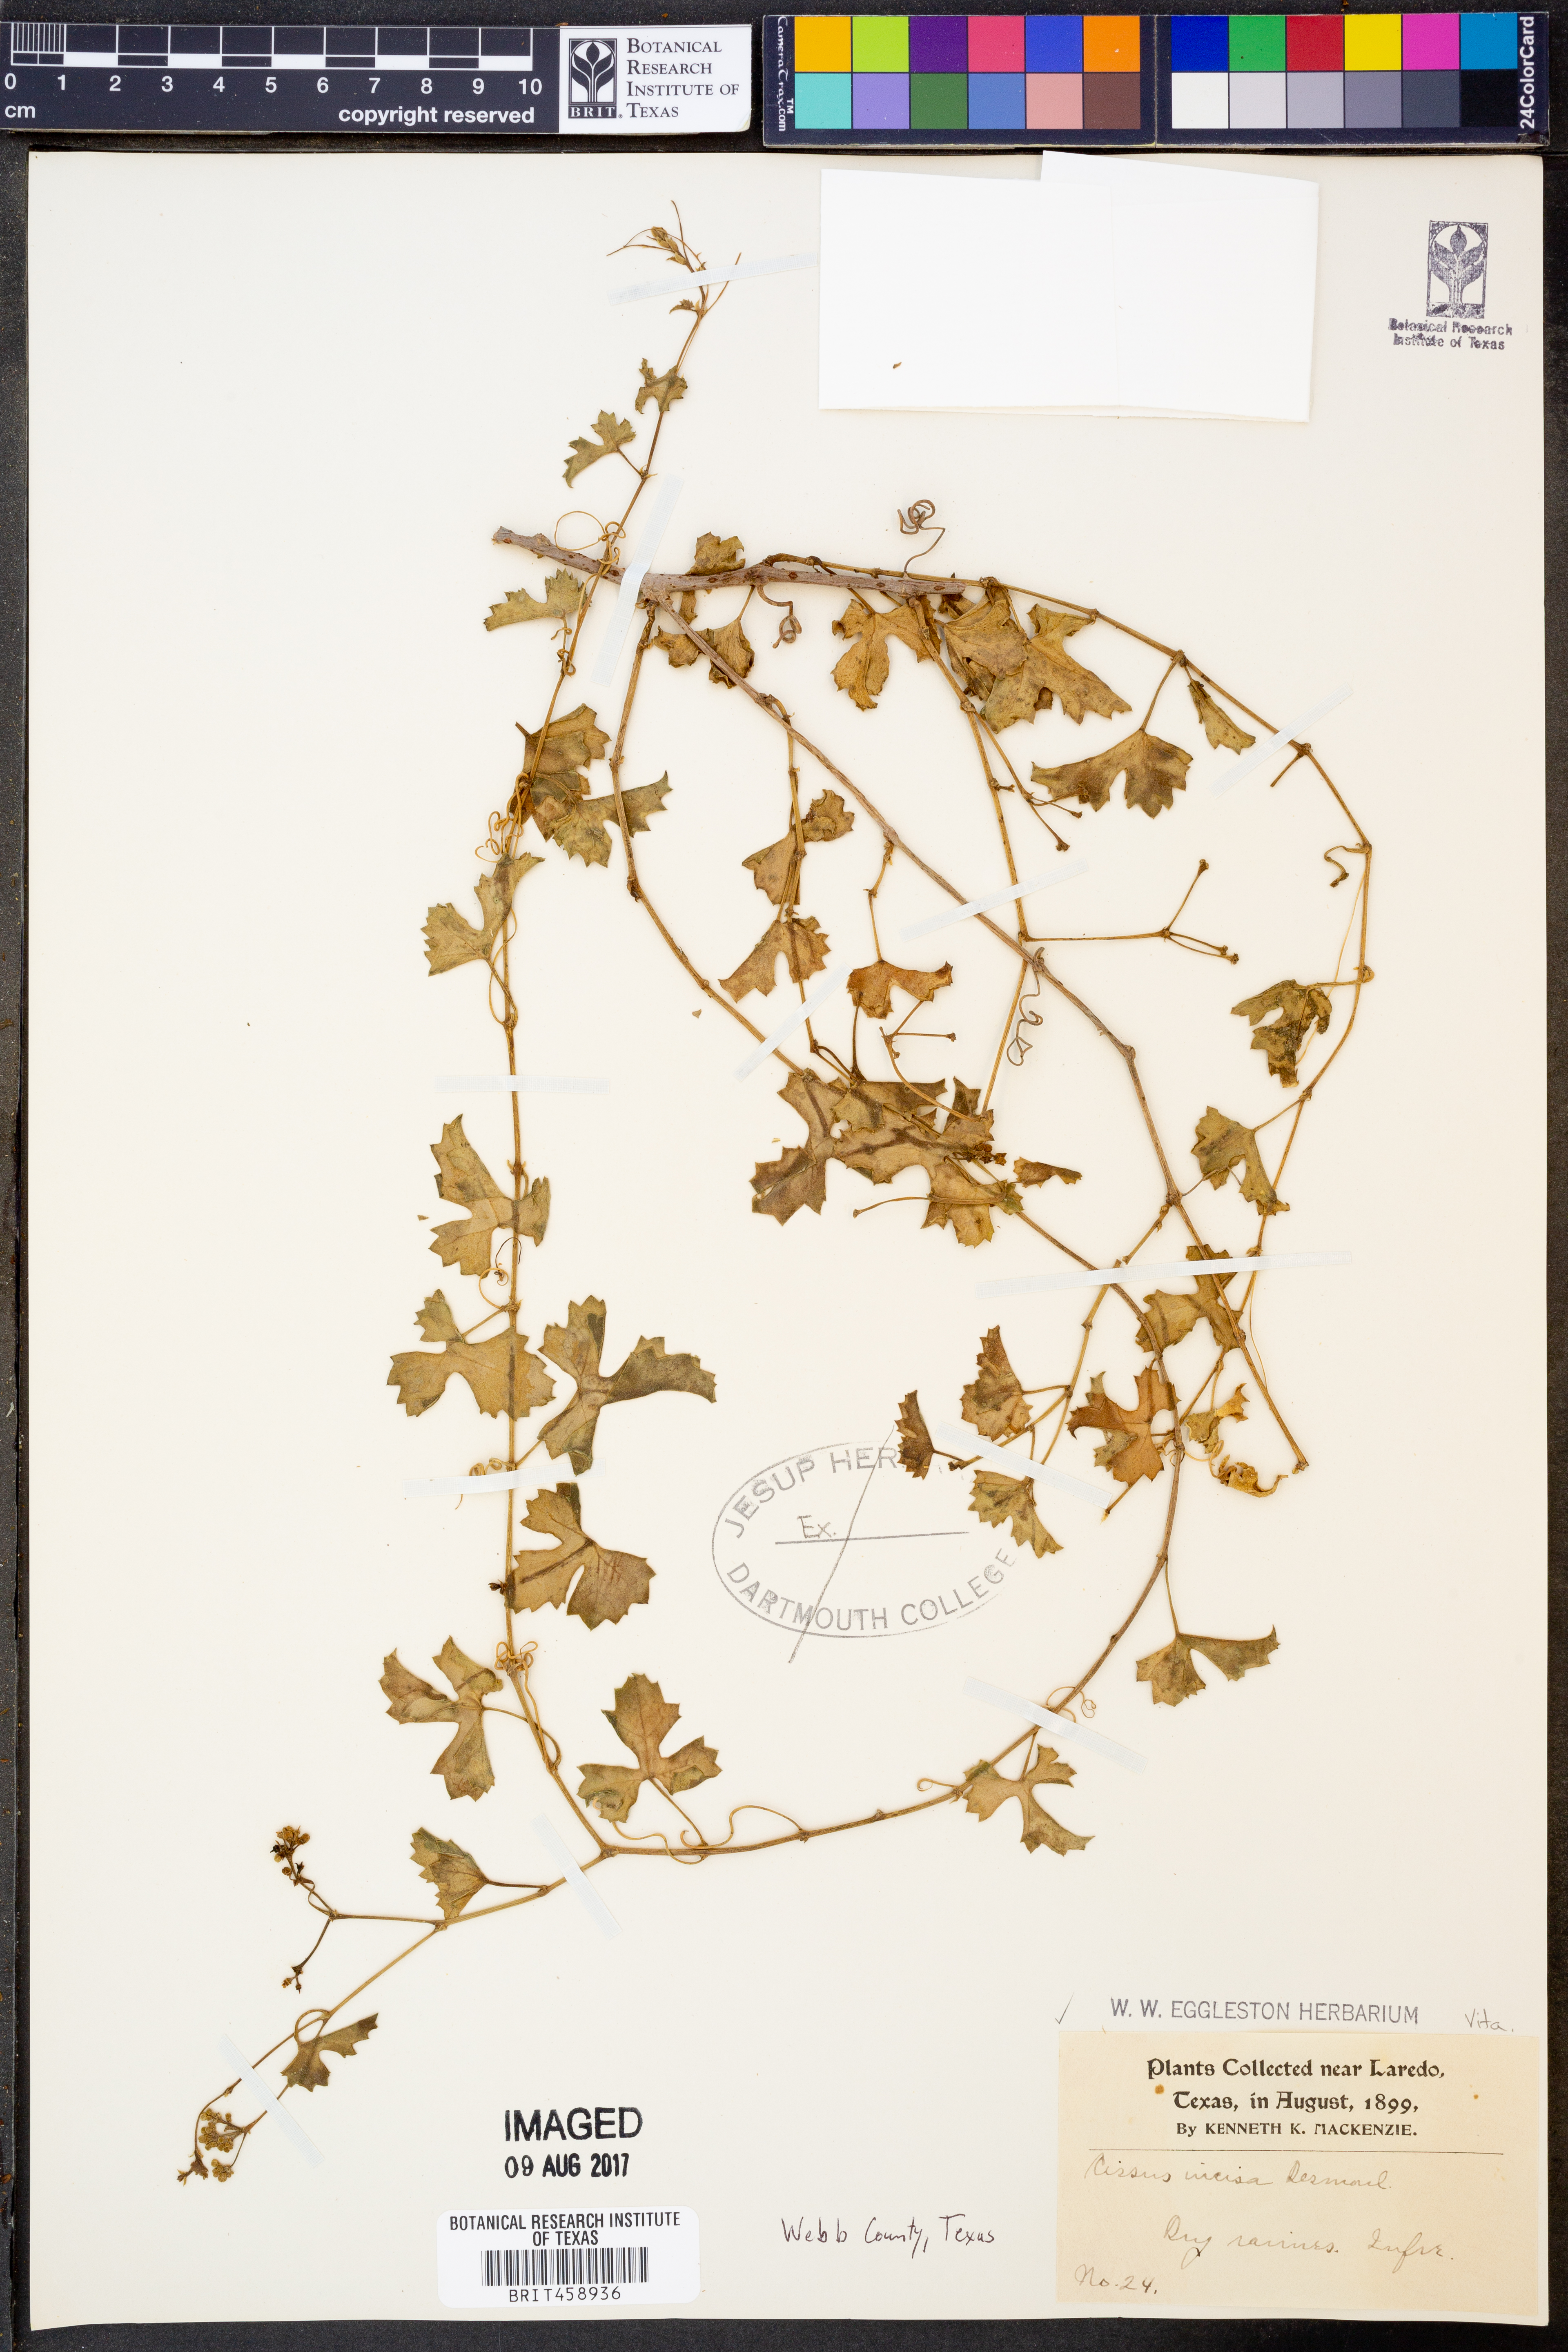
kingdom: Plantae
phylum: Tracheophyta
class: Magnoliopsida
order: Vitales
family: Vitaceae
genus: Cissus
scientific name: Cissus trifoliata
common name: Vine-sorrel
